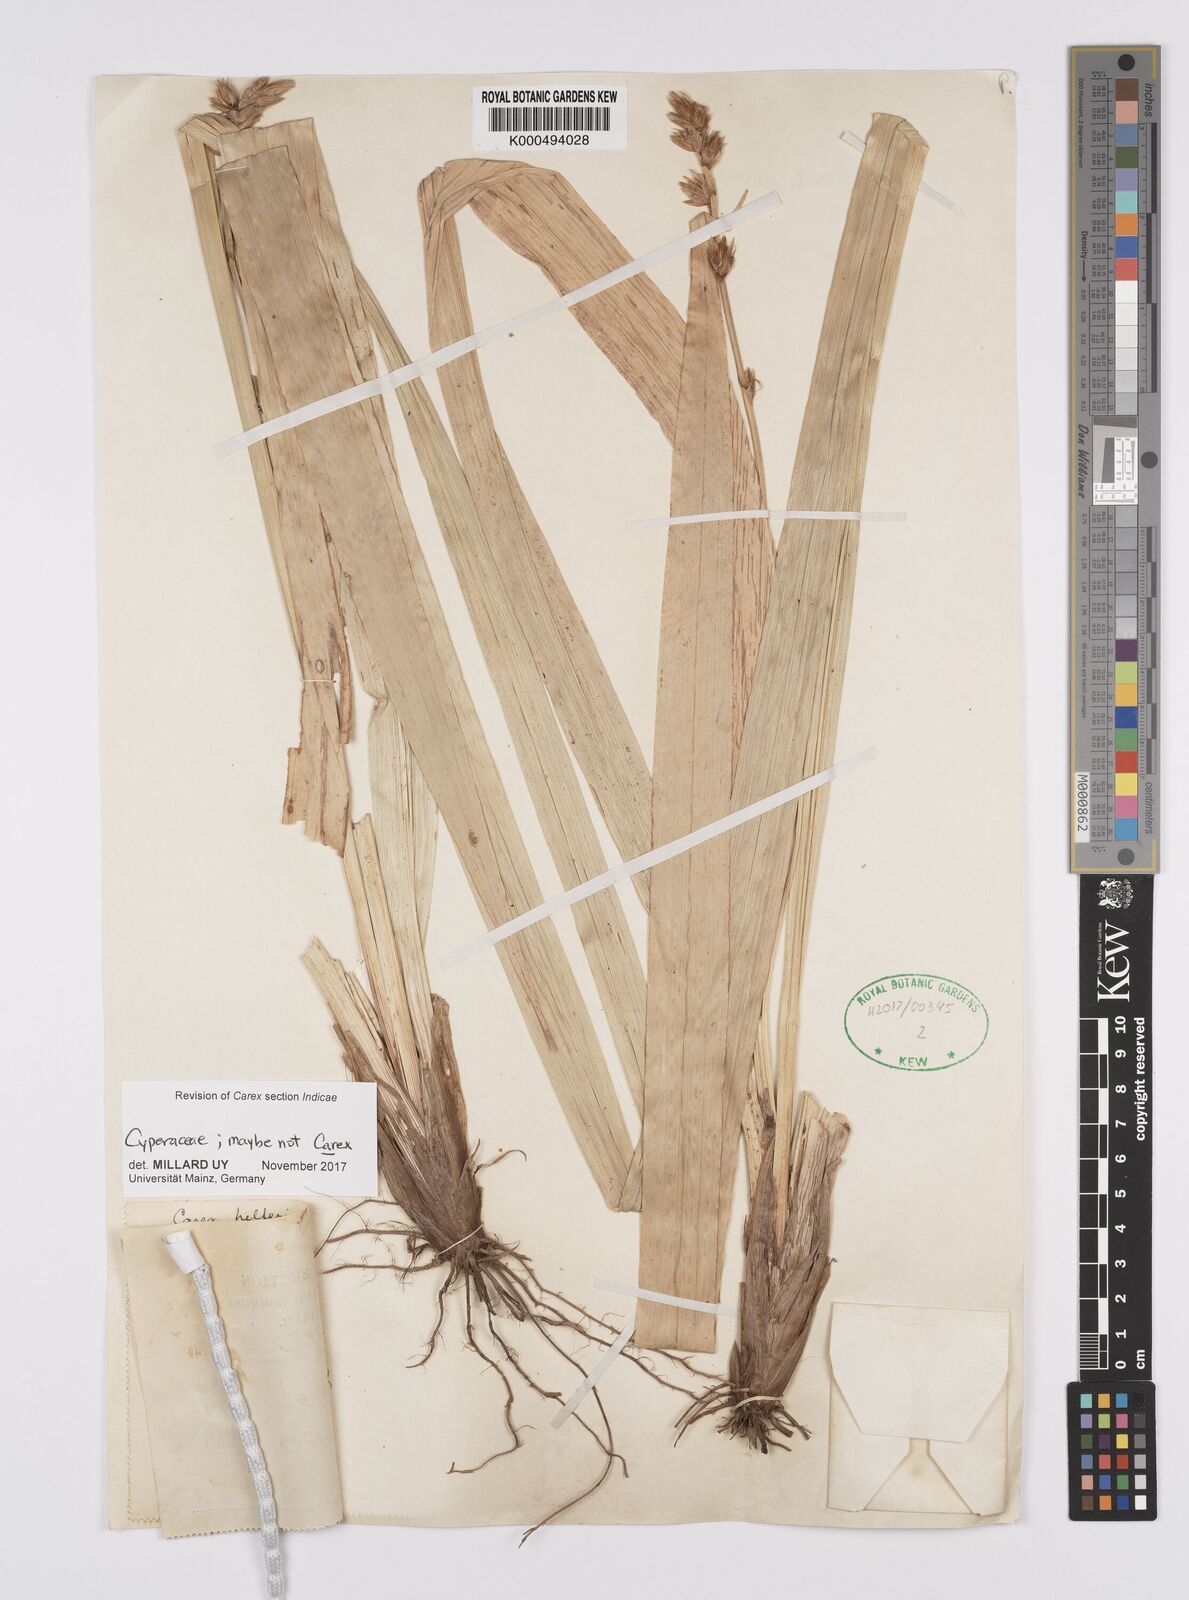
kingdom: Plantae
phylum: Tracheophyta
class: Liliopsida
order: Poales
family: Cyperaceae
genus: Carex
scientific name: Carex helferi
